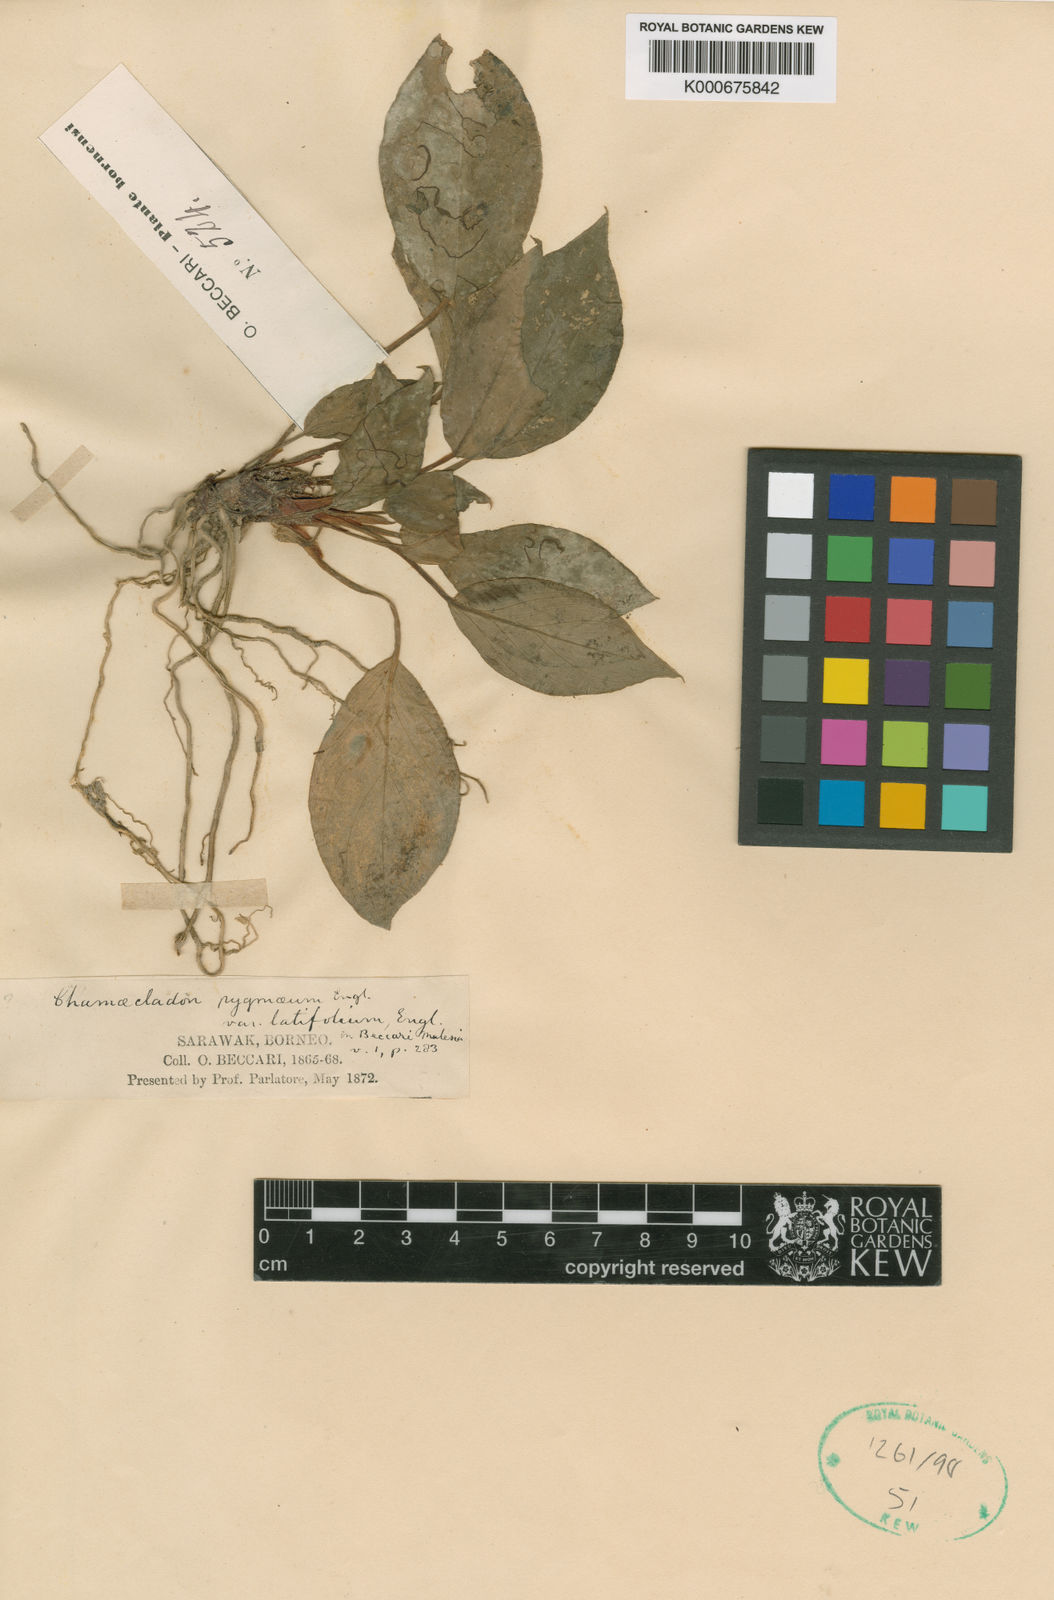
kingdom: Plantae
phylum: Tracheophyta
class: Liliopsida
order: Alismatales
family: Araceae
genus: Homalomena
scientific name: Homalomena humilis
